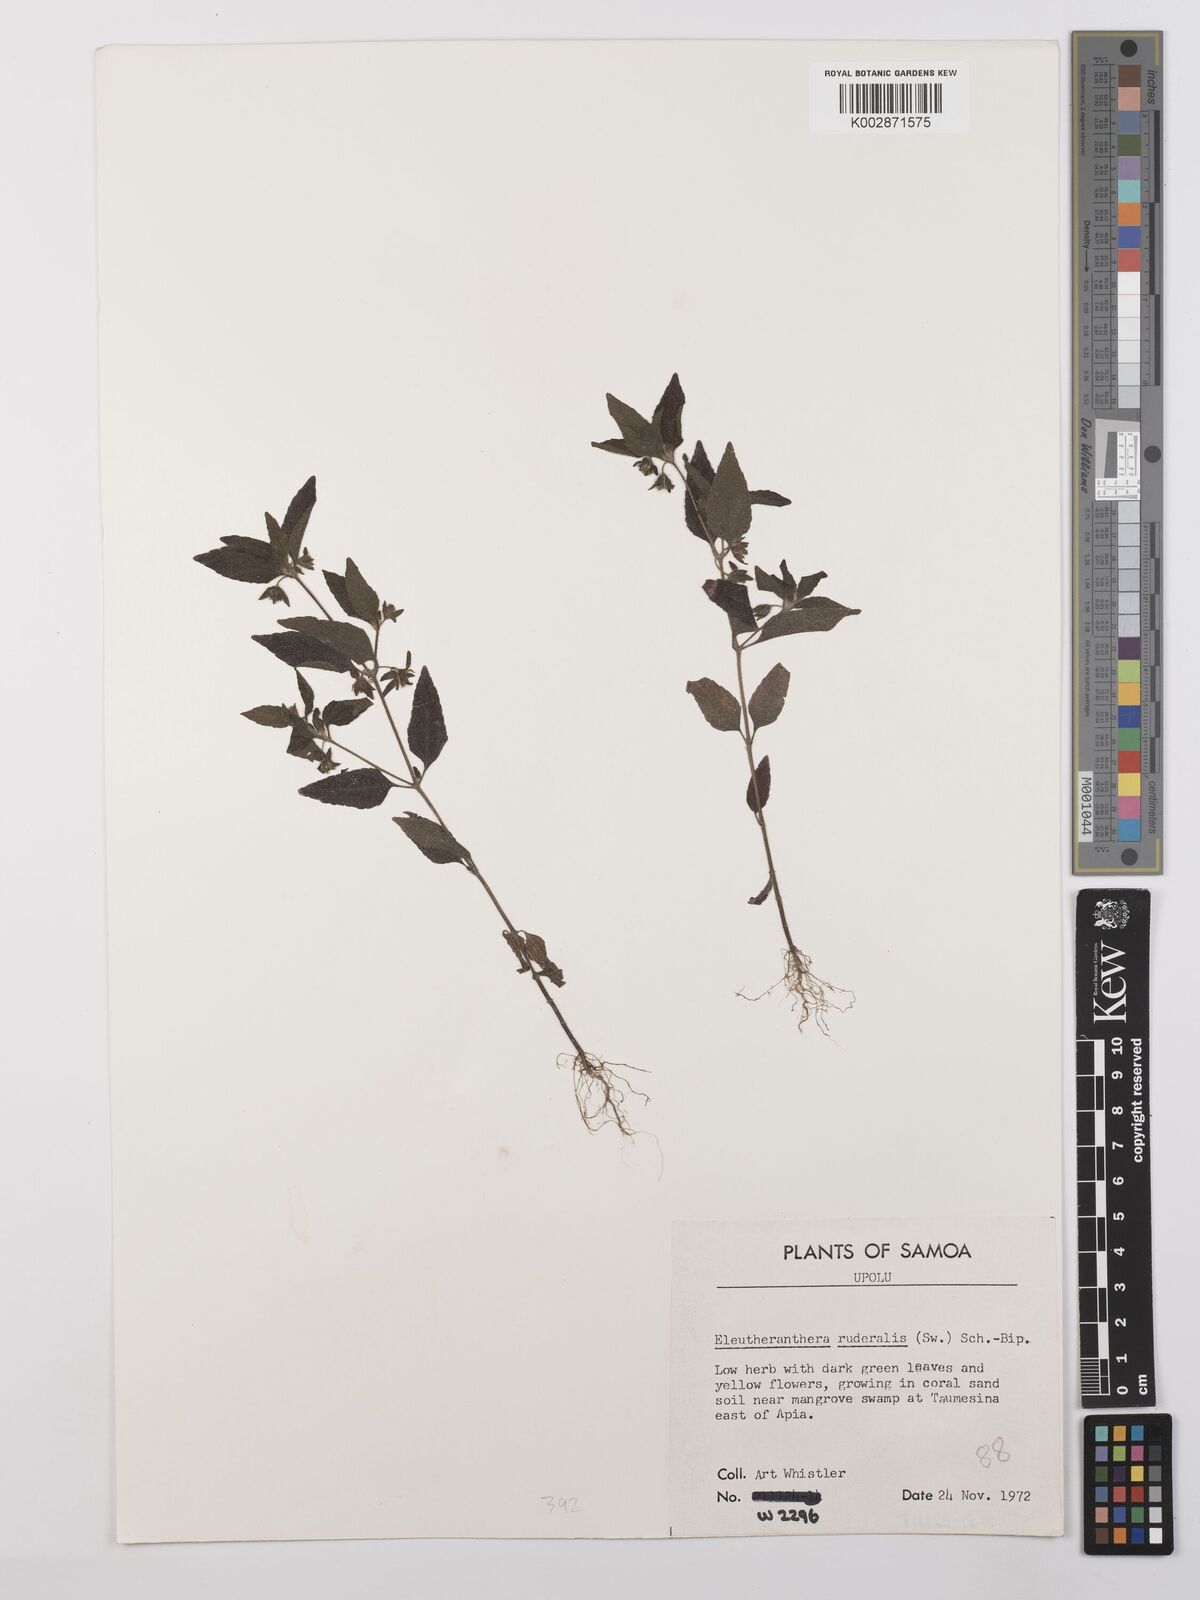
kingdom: Plantae
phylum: Tracheophyta
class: Magnoliopsida
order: Asterales
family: Asteraceae
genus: Eleutheranthera
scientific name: Eleutheranthera ruderalis
